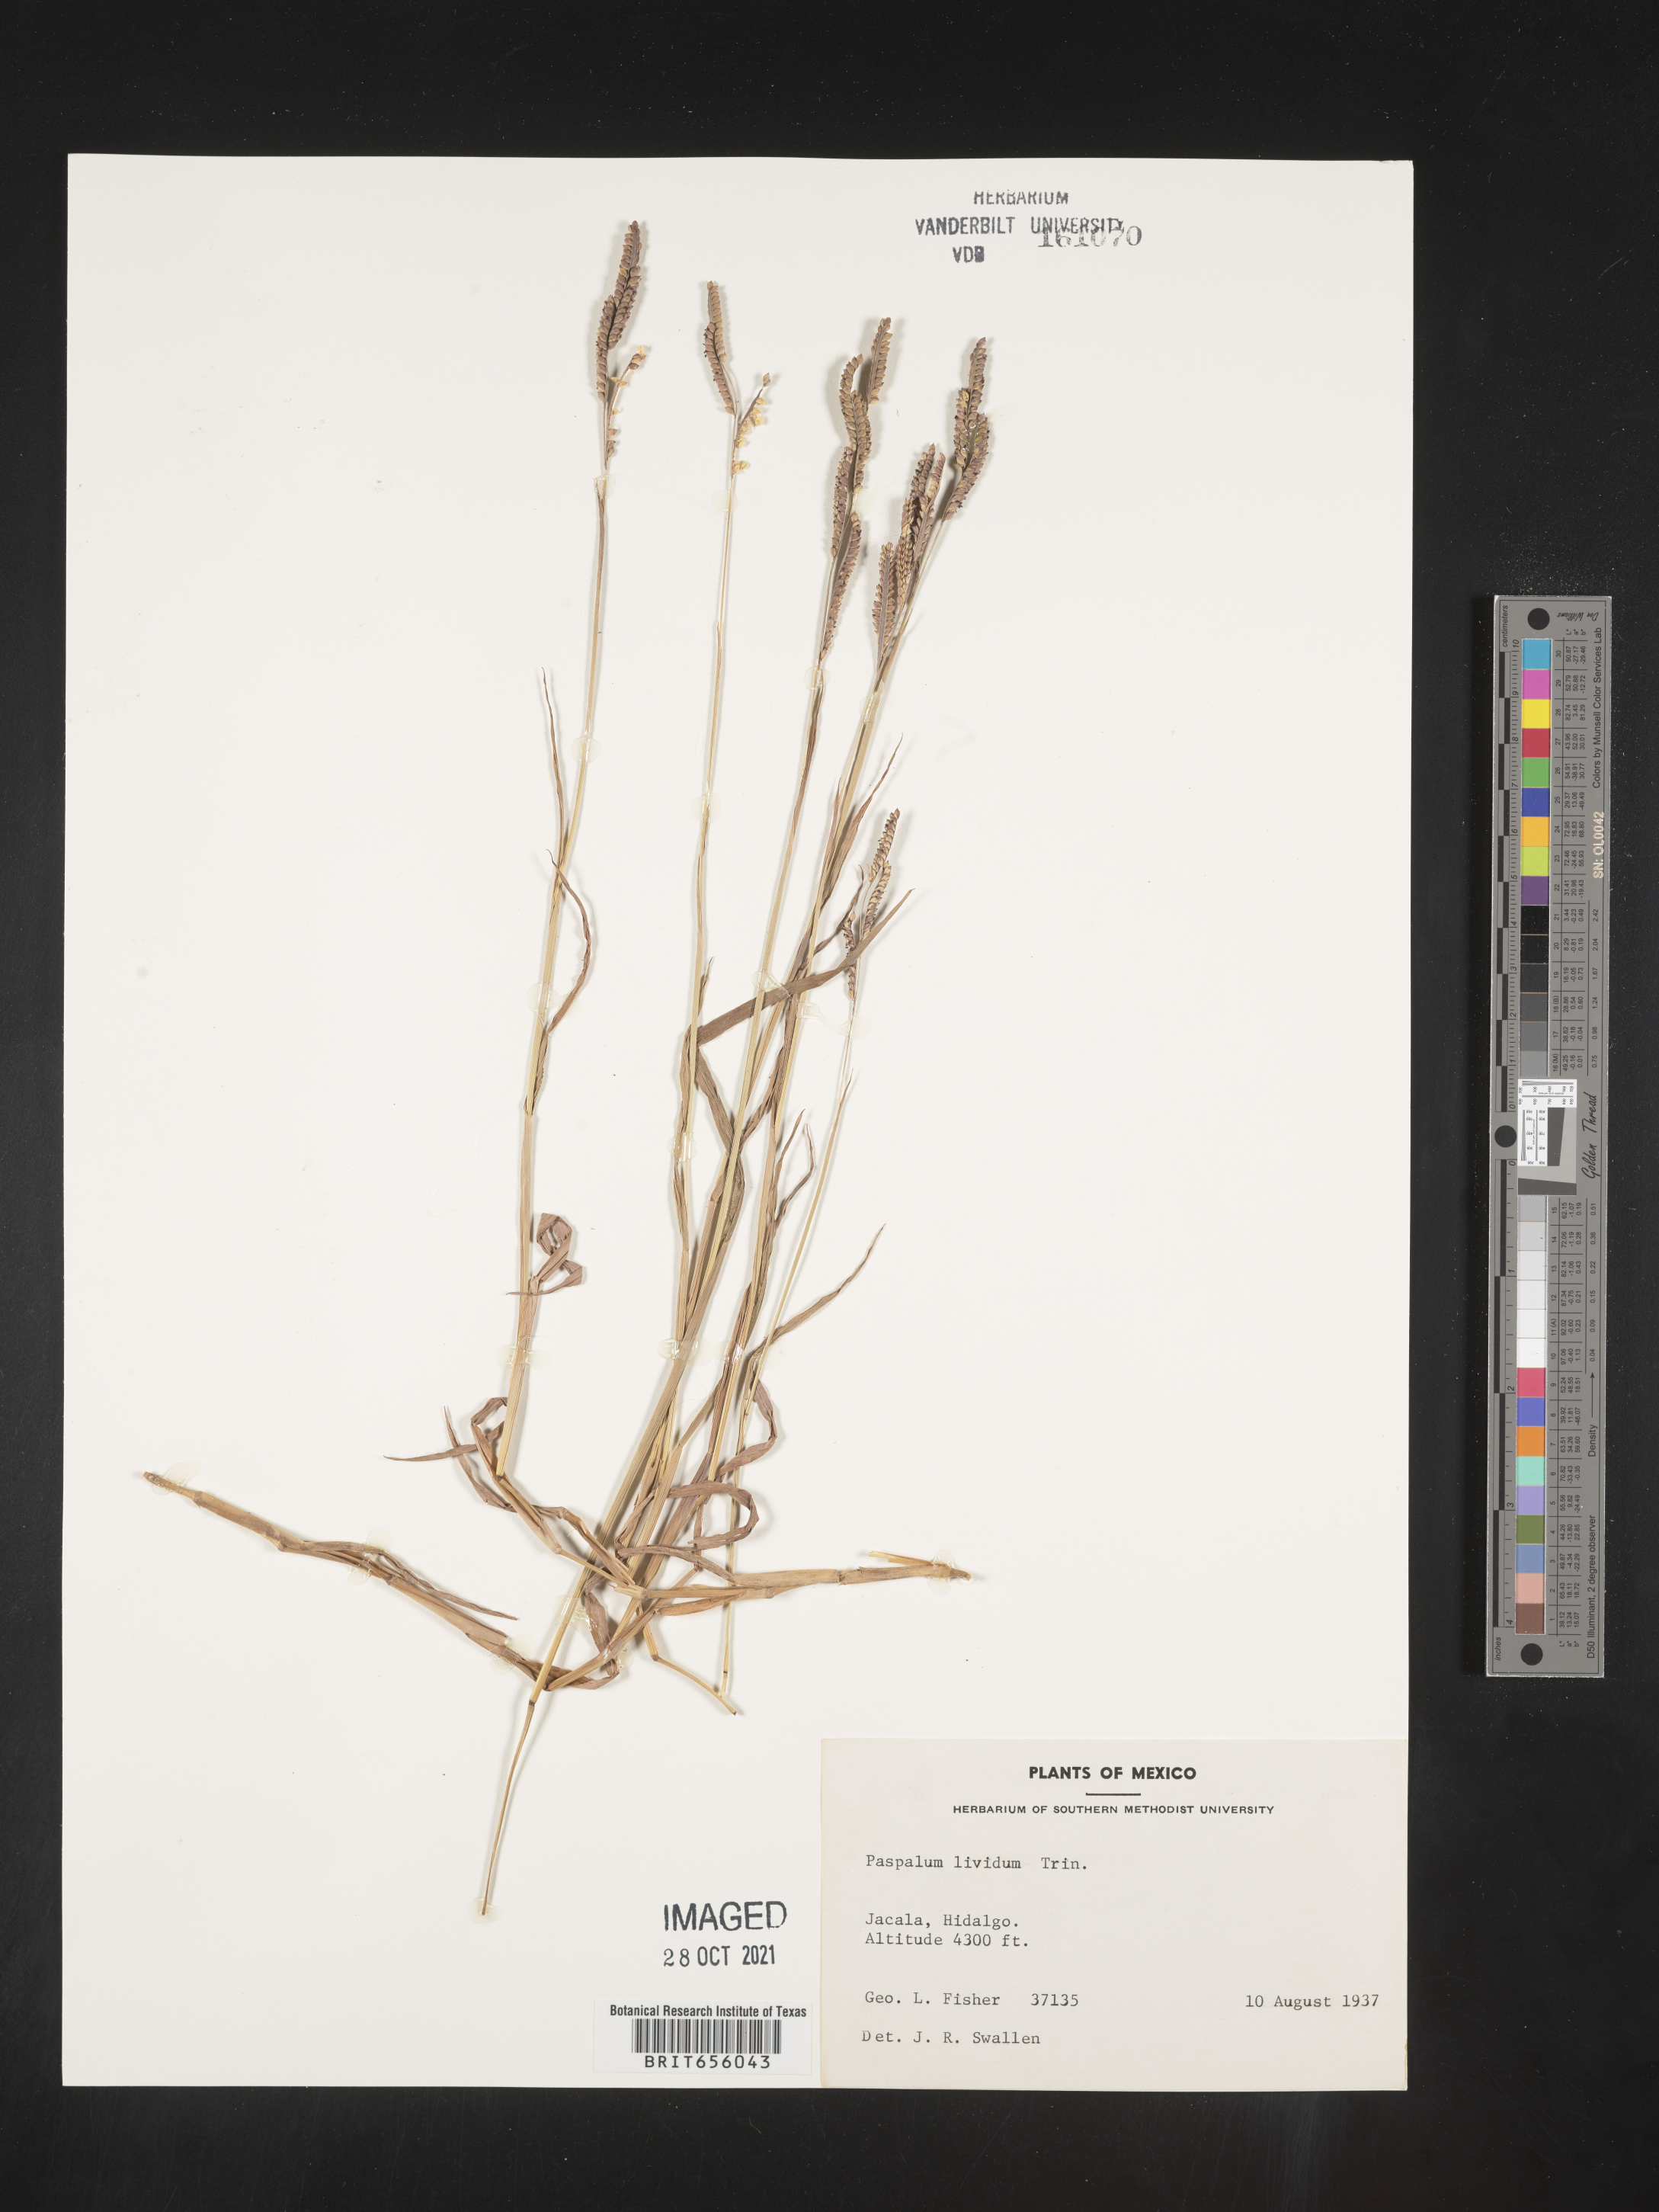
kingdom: Plantae
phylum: Tracheophyta
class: Liliopsida
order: Poales
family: Poaceae
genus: Paspalum
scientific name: Paspalum
